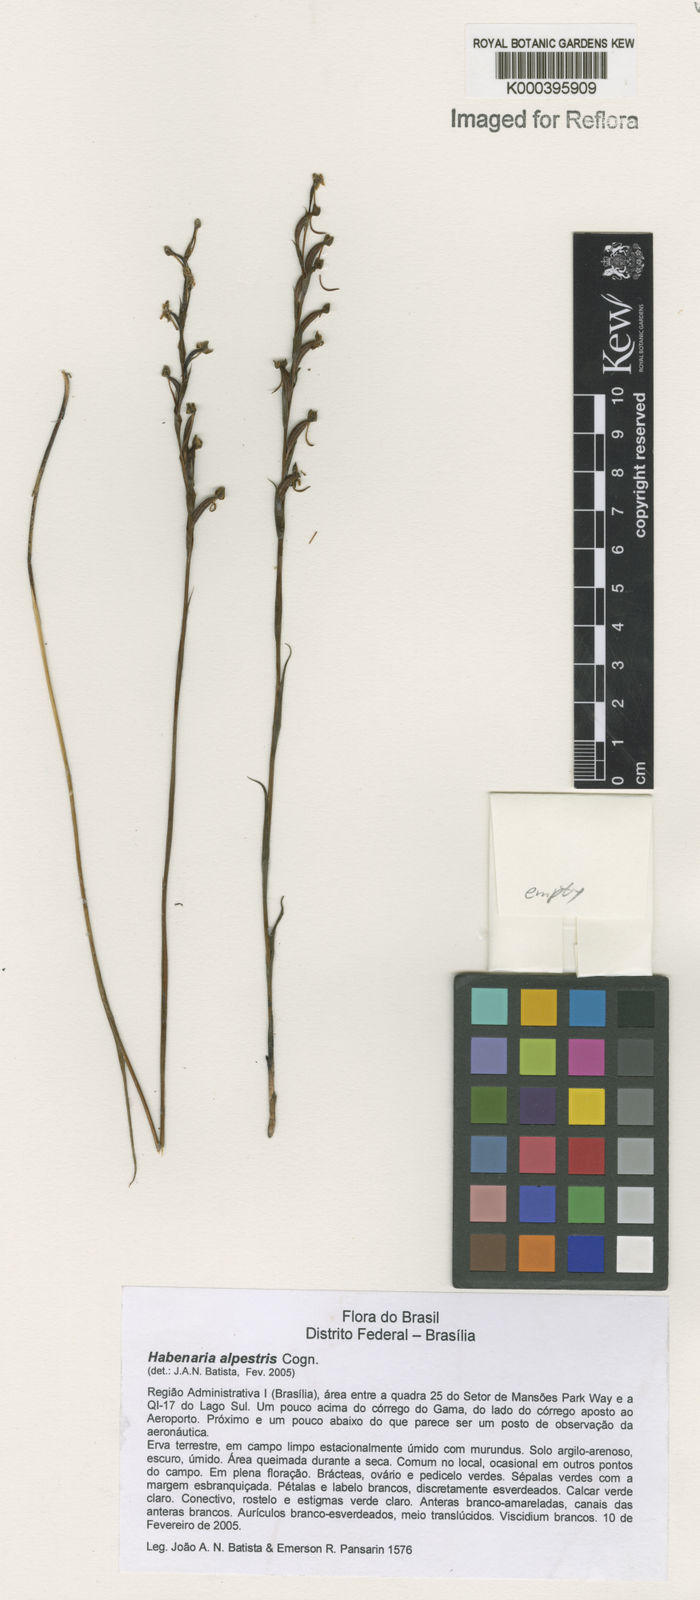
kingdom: Plantae
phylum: Tracheophyta
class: Liliopsida
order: Asparagales
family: Orchidaceae
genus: Habenaria
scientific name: Habenaria alpestris
